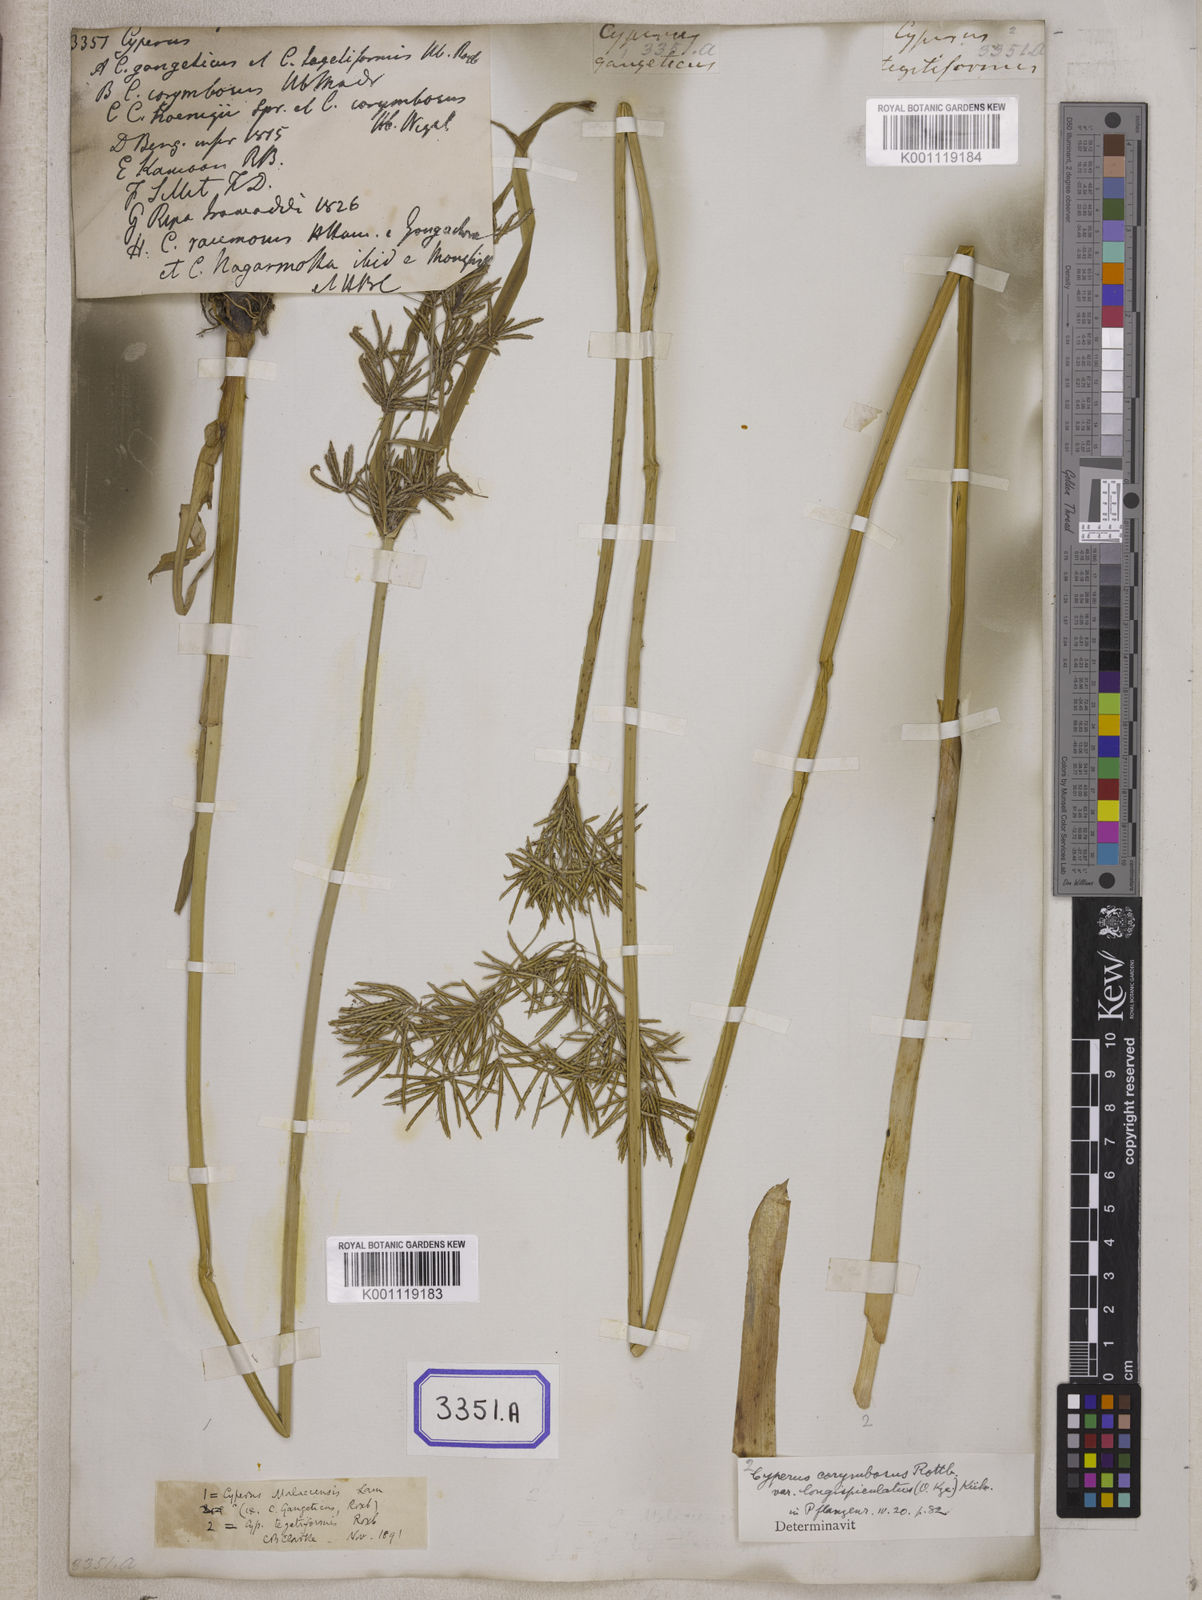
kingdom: Plantae
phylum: Tracheophyta
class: Liliopsida
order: Poales
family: Cyperaceae
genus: Cyperus
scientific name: Cyperus
